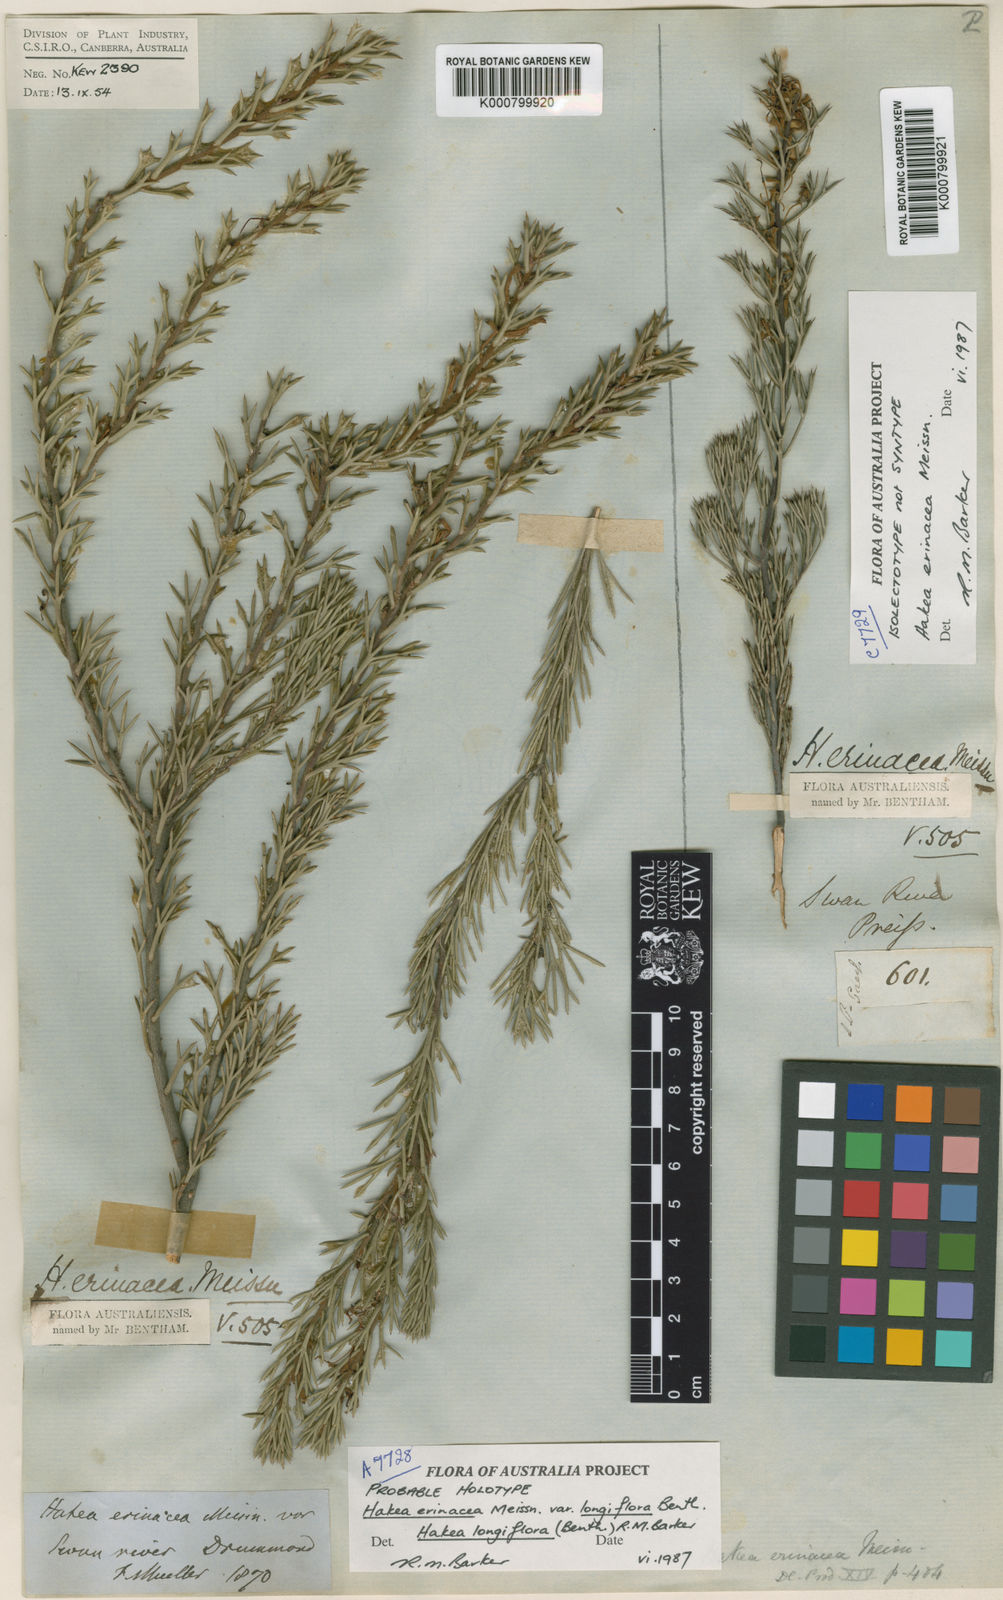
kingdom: Plantae
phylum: Tracheophyta
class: Magnoliopsida
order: Proteales
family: Proteaceae
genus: Hakea
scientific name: Hakea erinacea
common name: Hedgehog hakea
